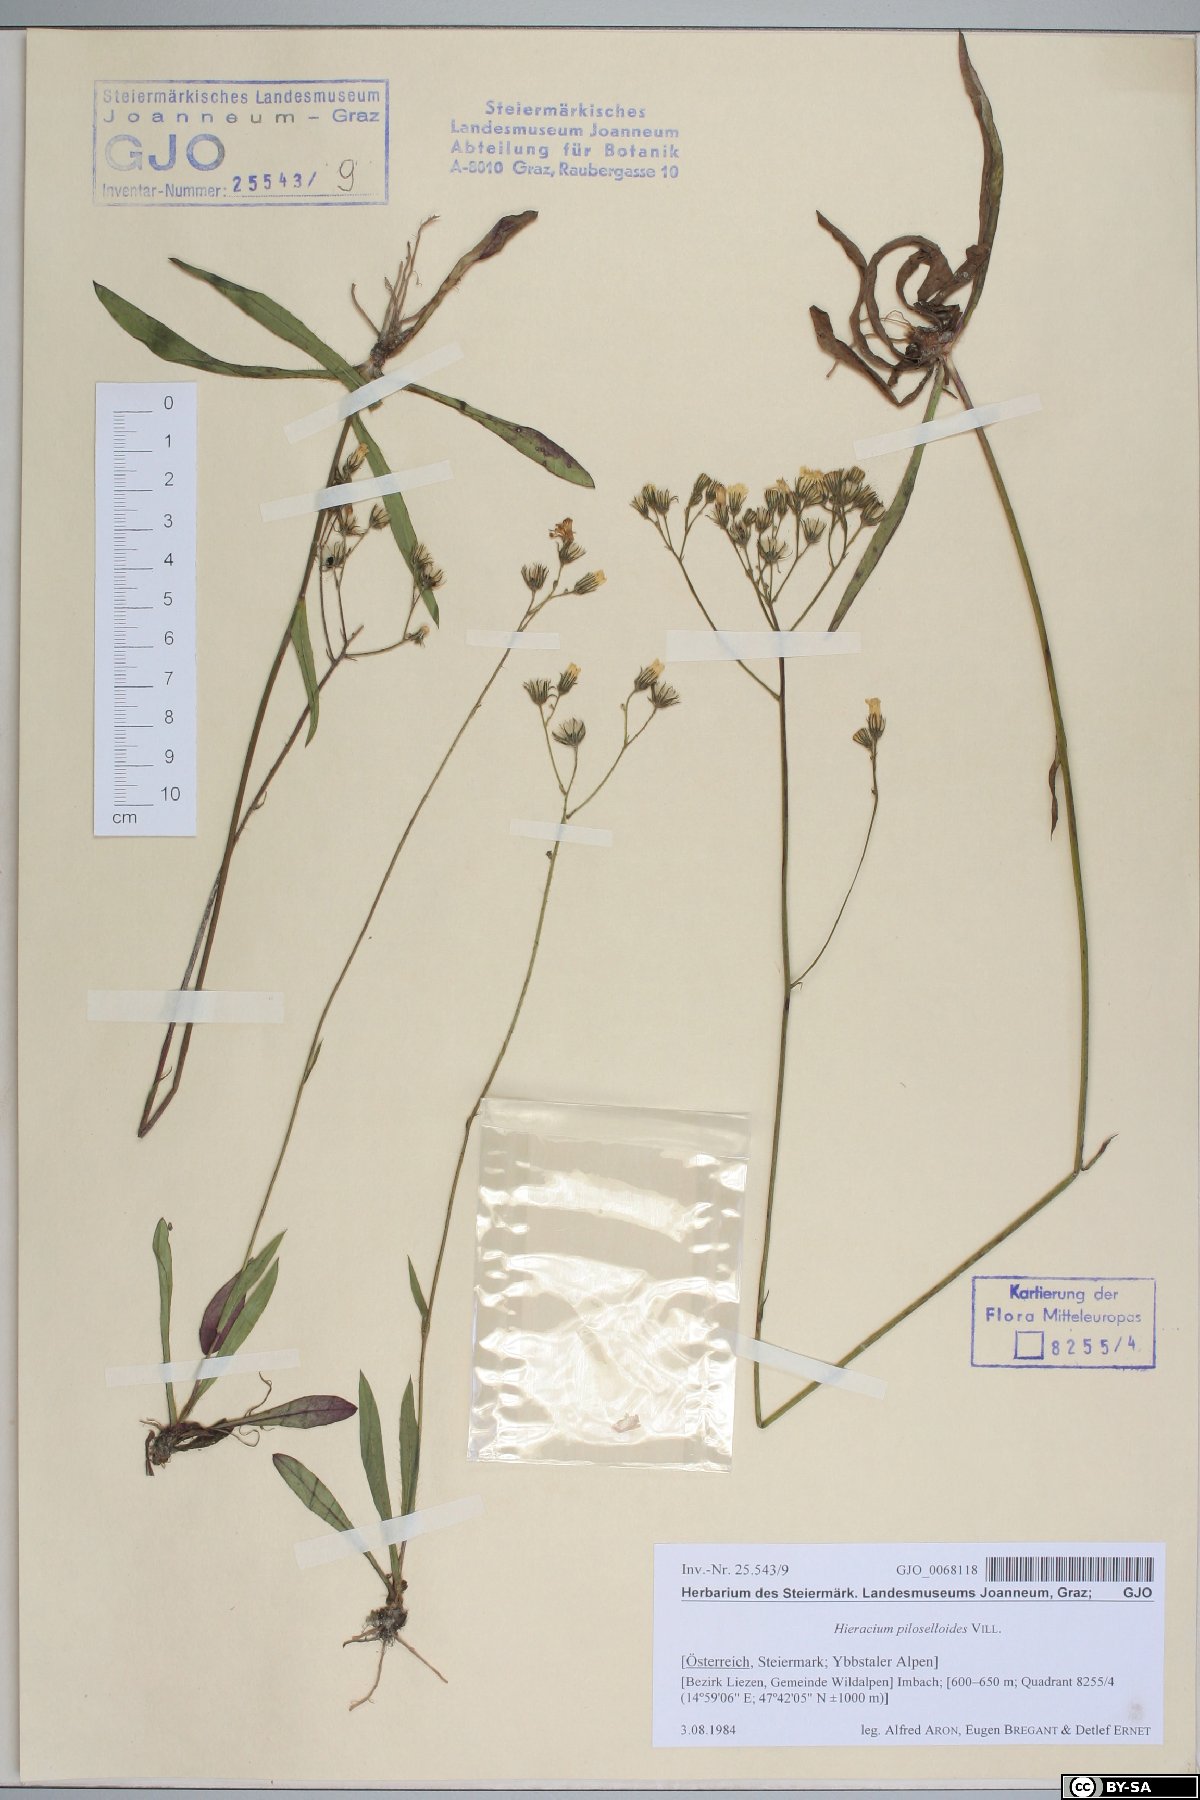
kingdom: Plantae
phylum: Tracheophyta
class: Magnoliopsida
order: Asterales
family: Asteraceae
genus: Pilosella
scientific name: Pilosella piloselloides
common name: Glaucous king-devil
